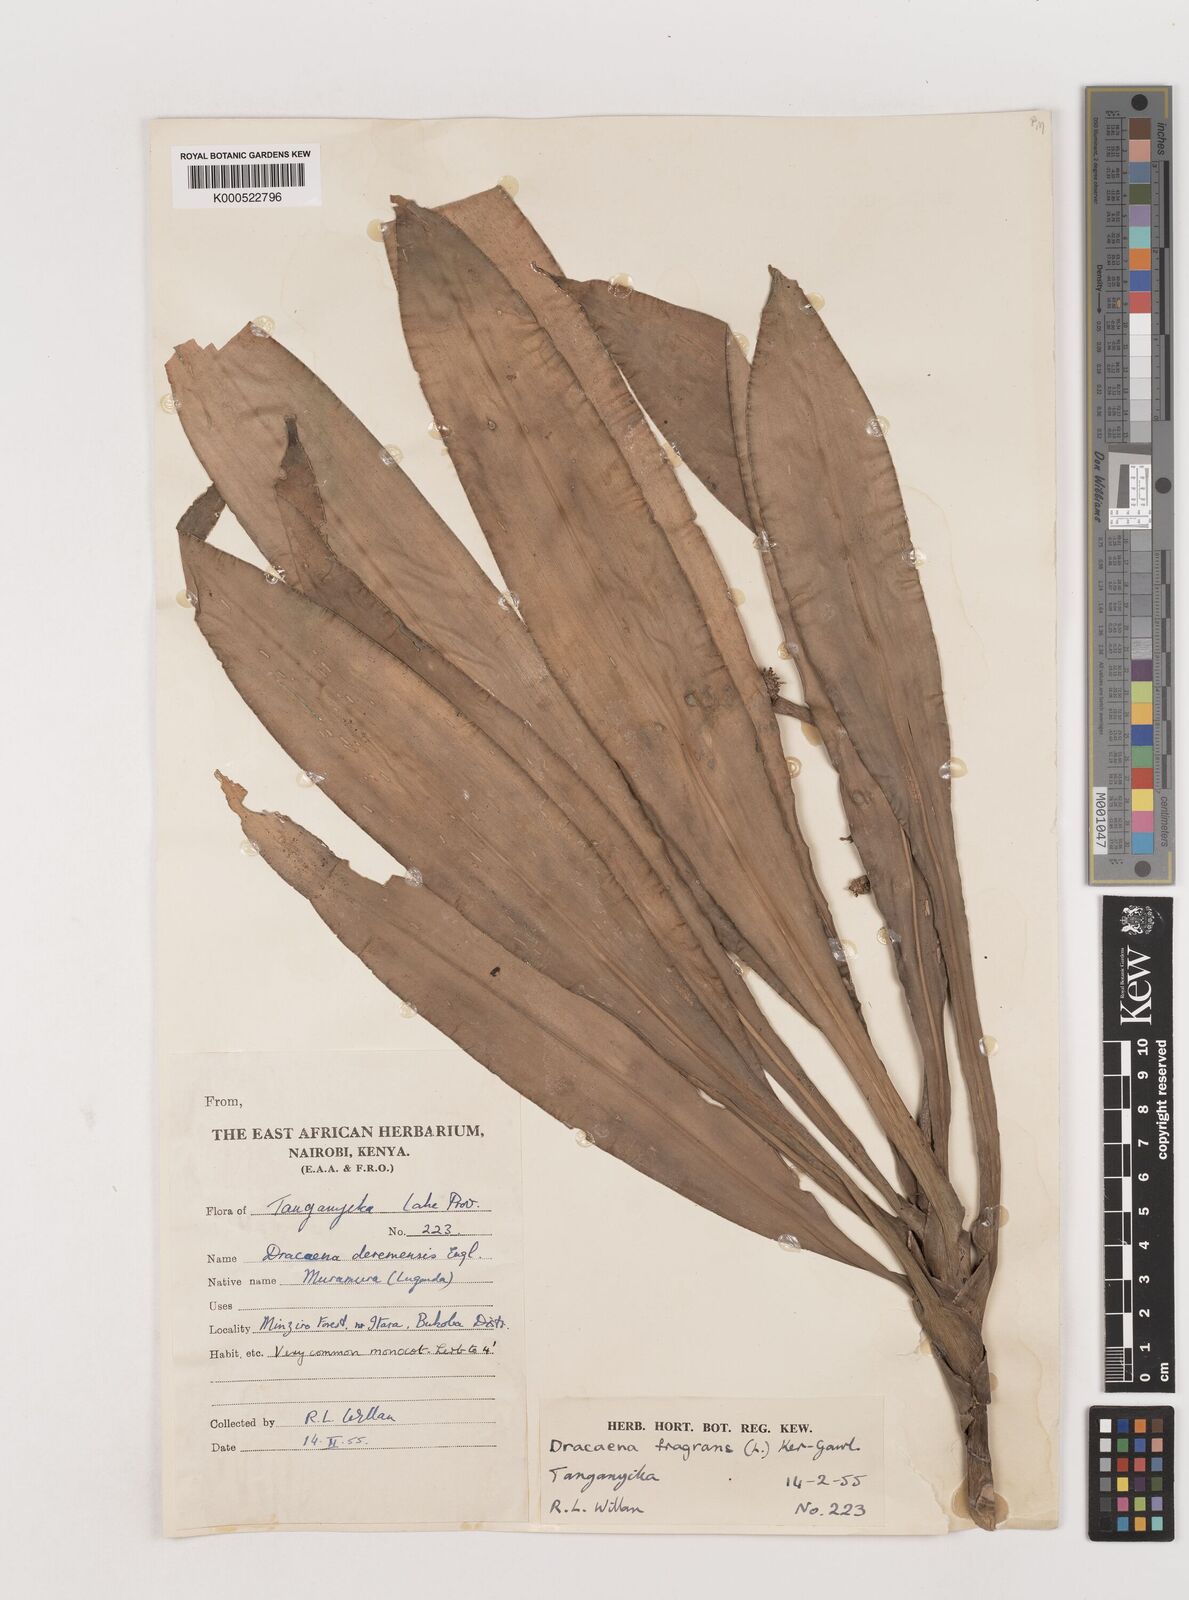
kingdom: Plantae
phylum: Tracheophyta
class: Liliopsida
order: Asparagales
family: Asparagaceae
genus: Dracaena
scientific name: Dracaena fragrans
